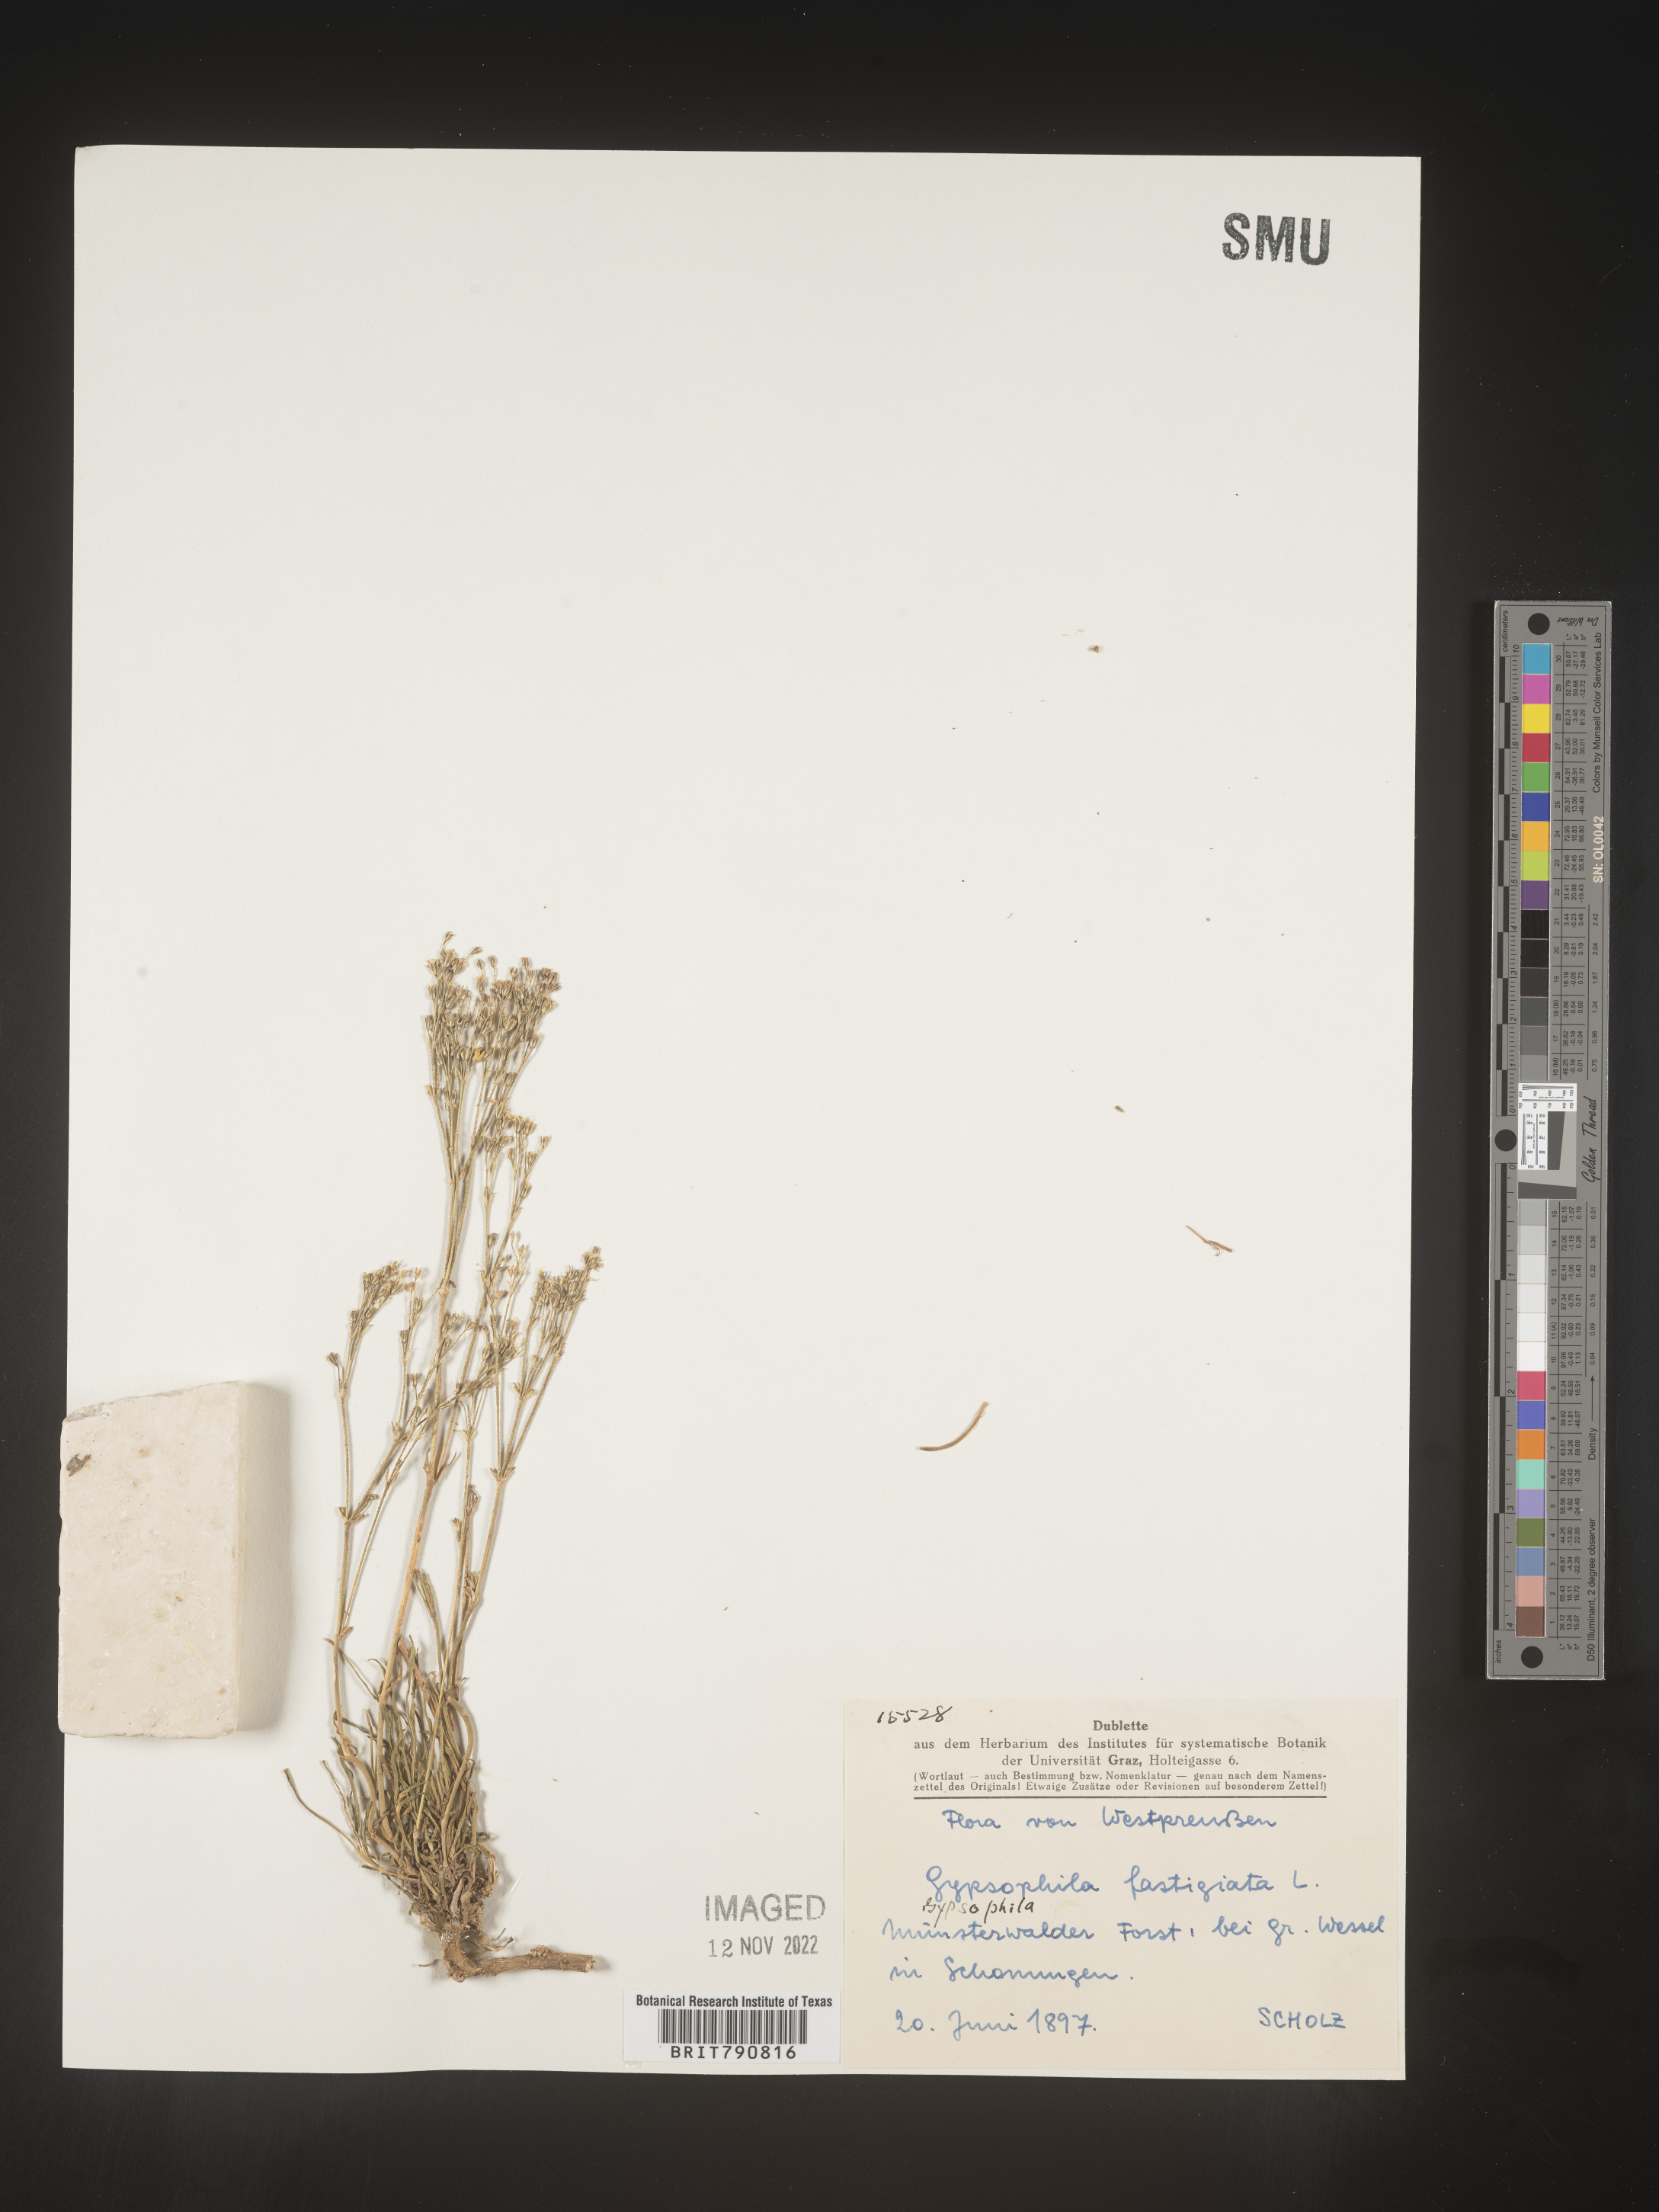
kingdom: Plantae
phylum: Tracheophyta
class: Magnoliopsida
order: Caryophyllales
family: Caryophyllaceae
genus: Gypsophila
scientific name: Gypsophila
